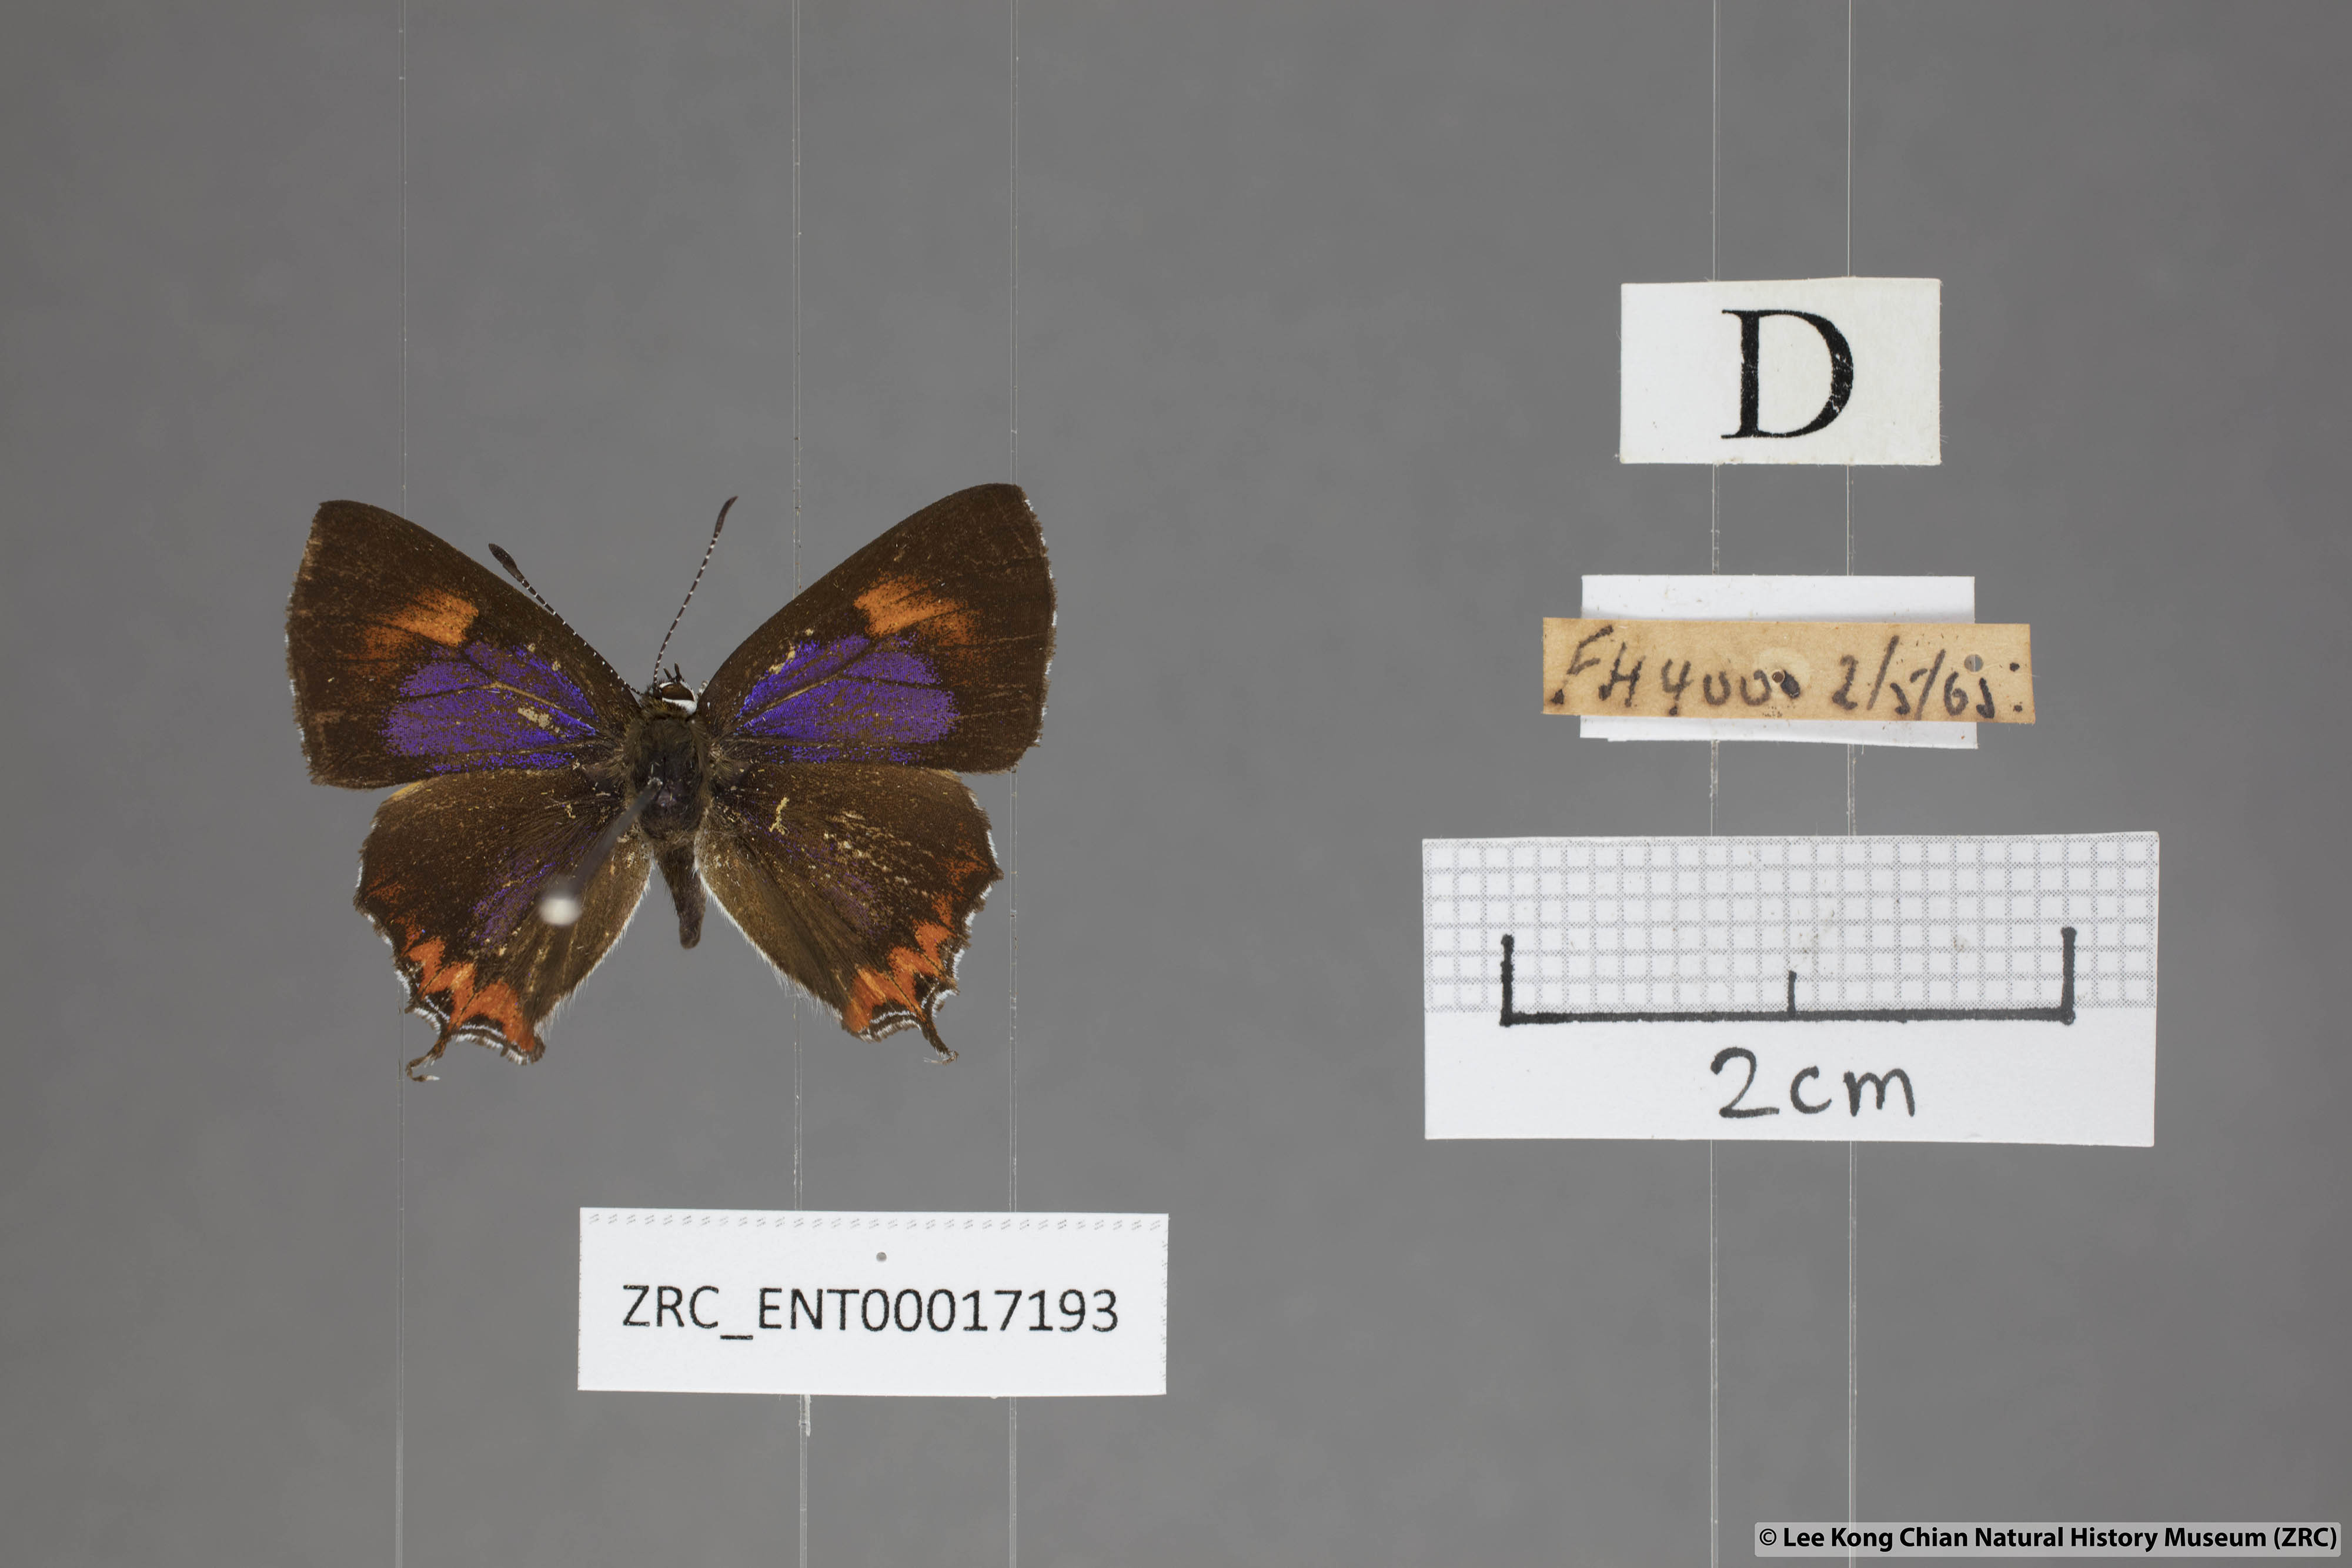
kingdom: Animalia
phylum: Arthropoda
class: Insecta
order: Lepidoptera
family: Lycaenidae
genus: Heliophorus
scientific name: Heliophorus epicles
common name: Purple sapphire
